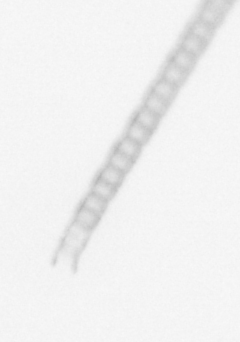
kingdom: Chromista
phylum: Ochrophyta
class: Bacillariophyceae
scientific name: Bacillariophyceae
